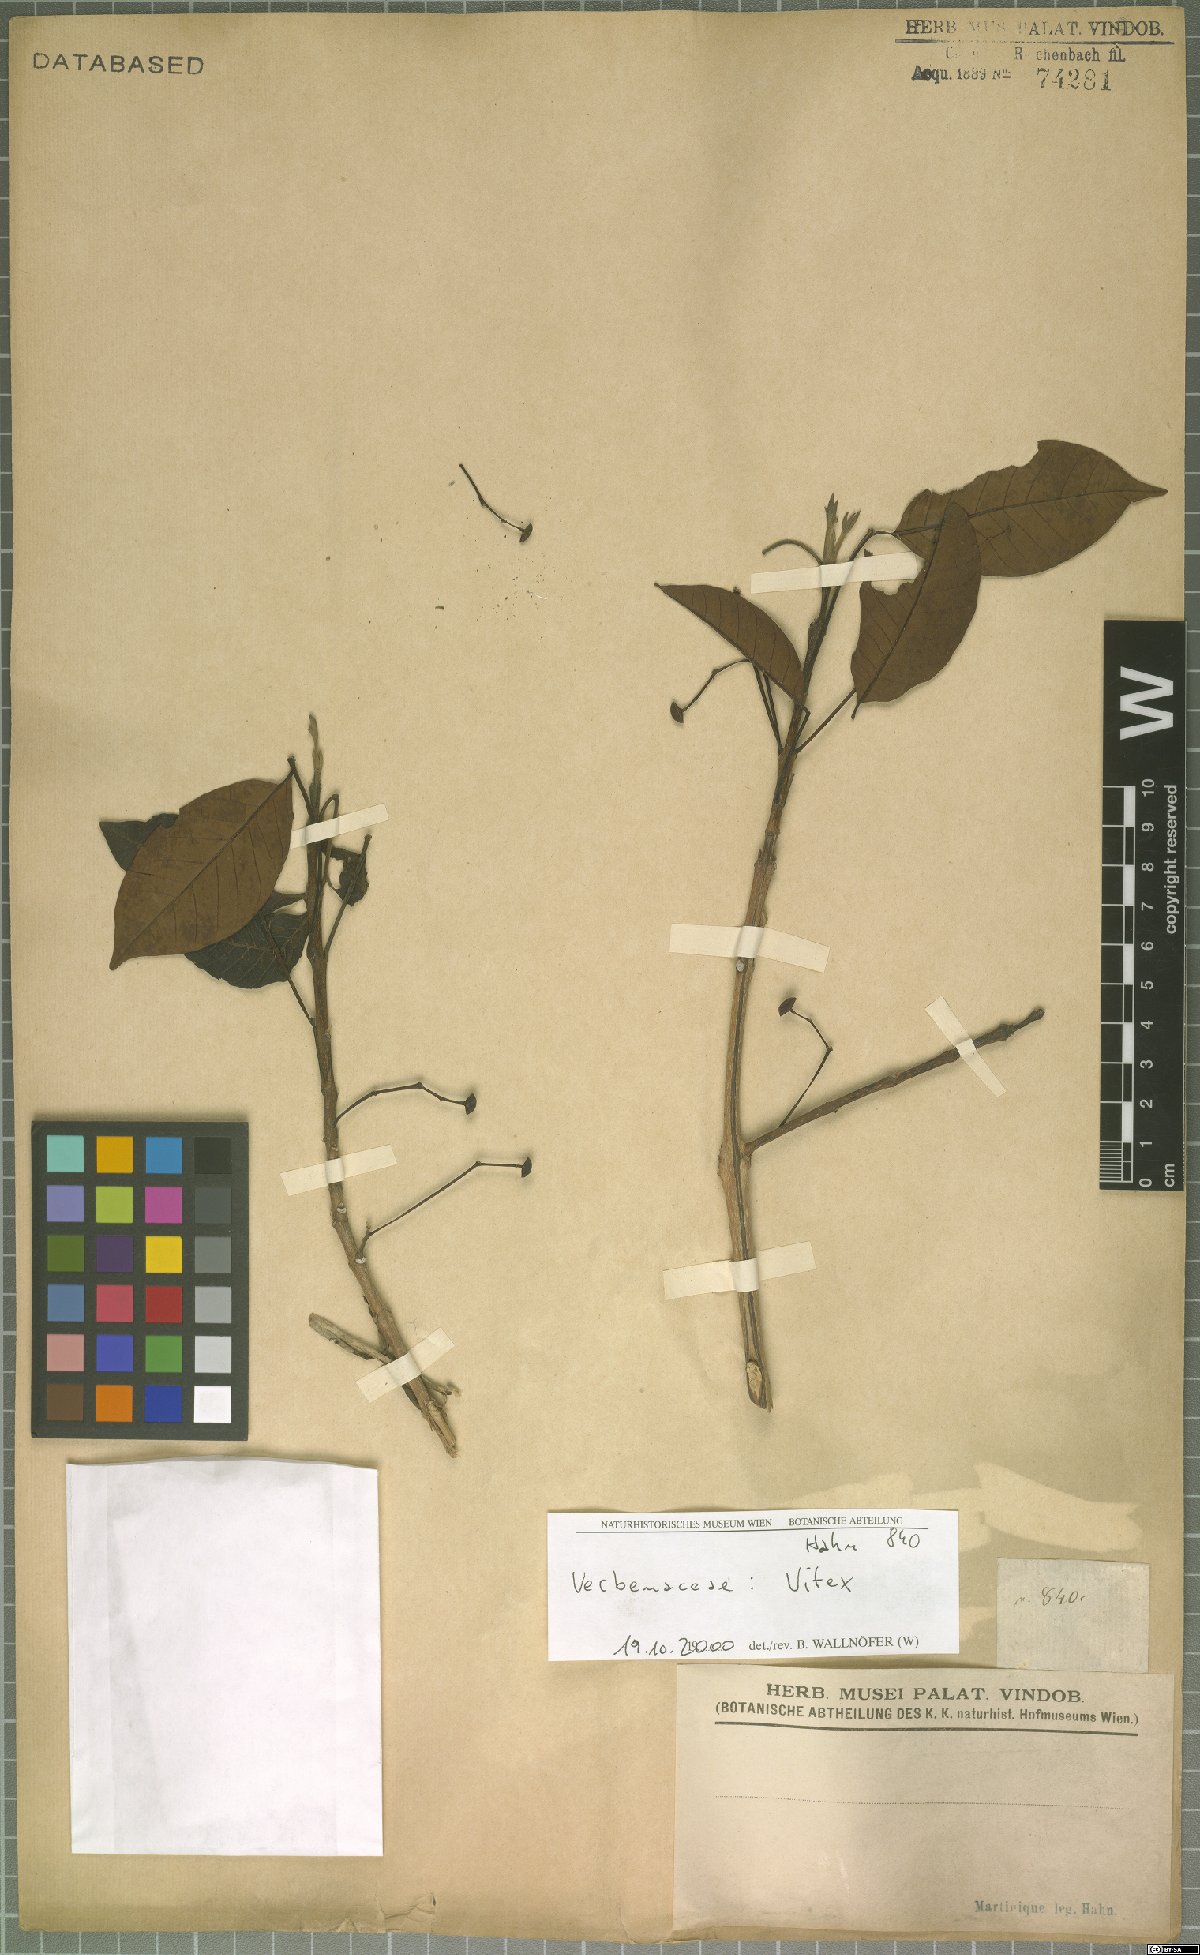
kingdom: Plantae
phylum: Tracheophyta
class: Magnoliopsida
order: Lamiales
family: Lamiaceae
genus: Vitex
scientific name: Vitex
